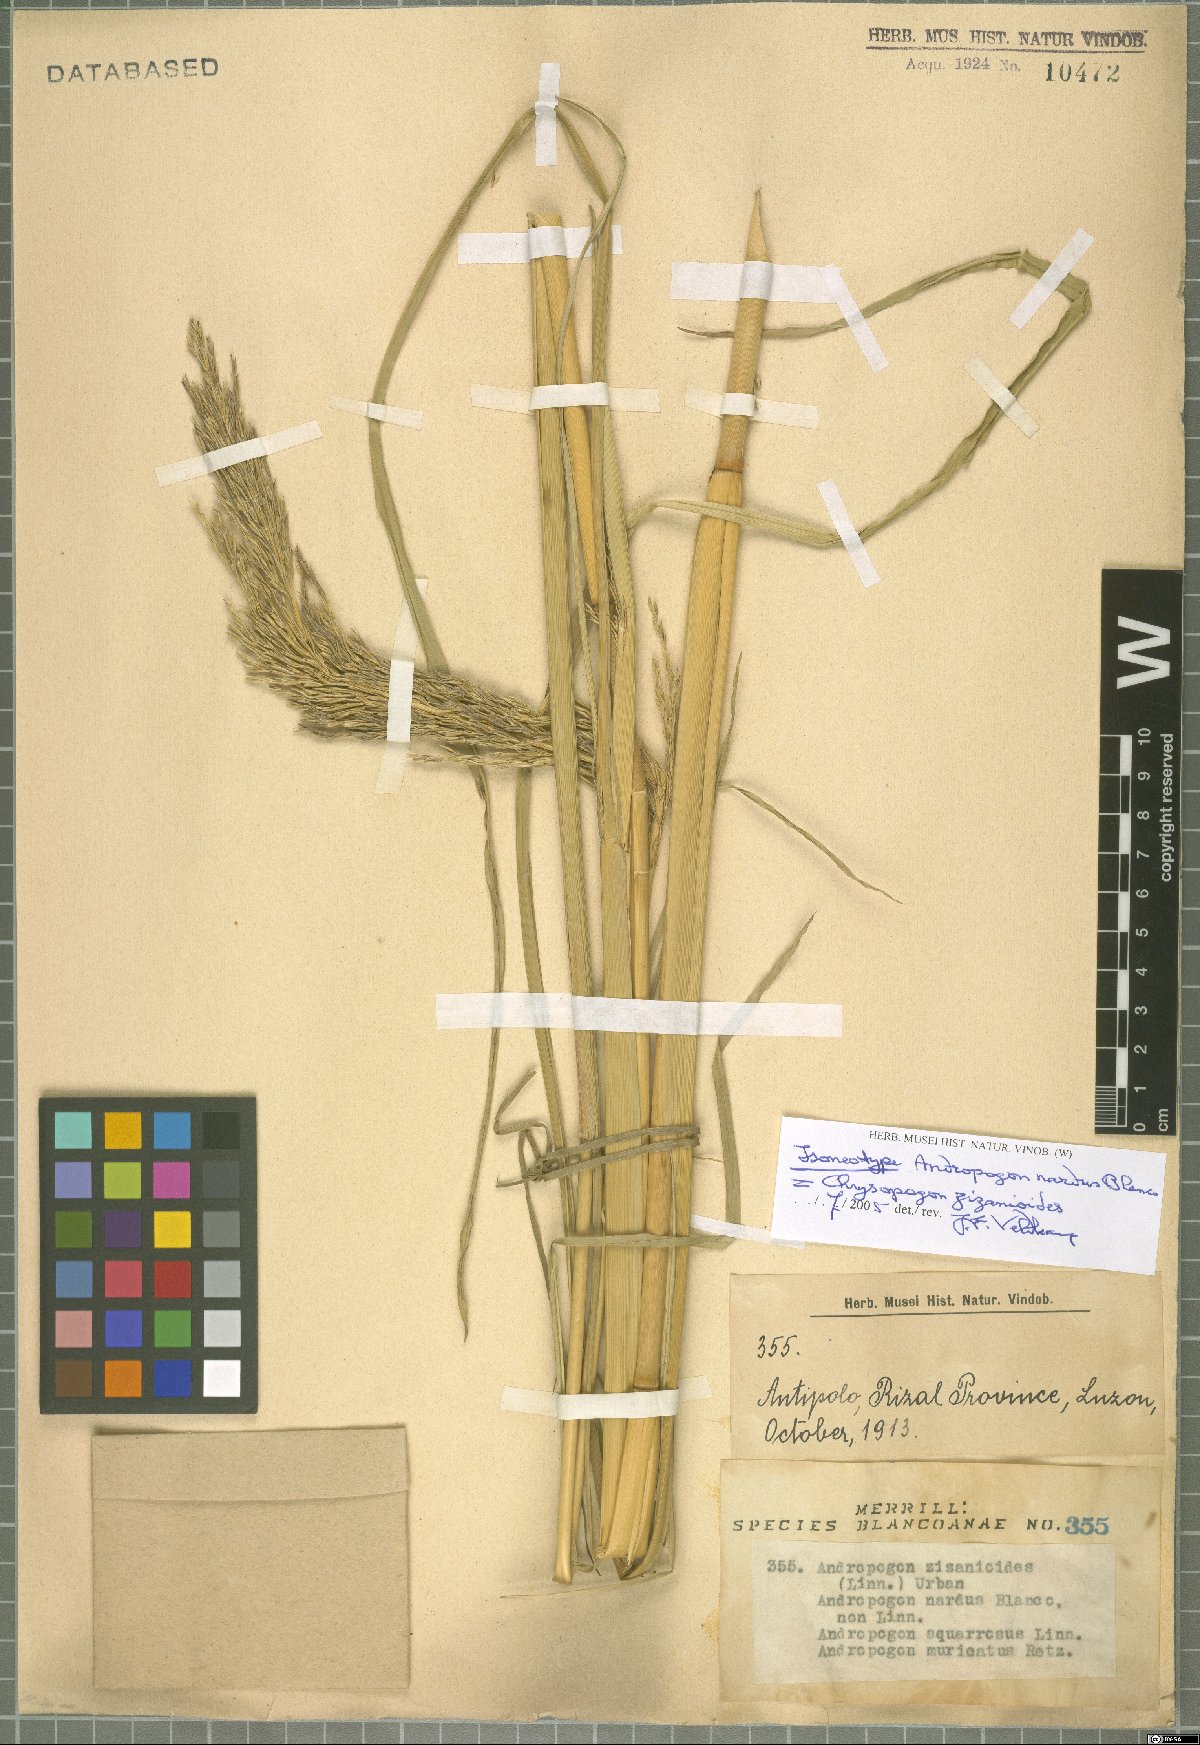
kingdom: Plantae
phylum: Tracheophyta
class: Liliopsida
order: Poales
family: Poaceae
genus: Chrysopogon
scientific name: Chrysopogon zizanioides
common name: False beardgrass
